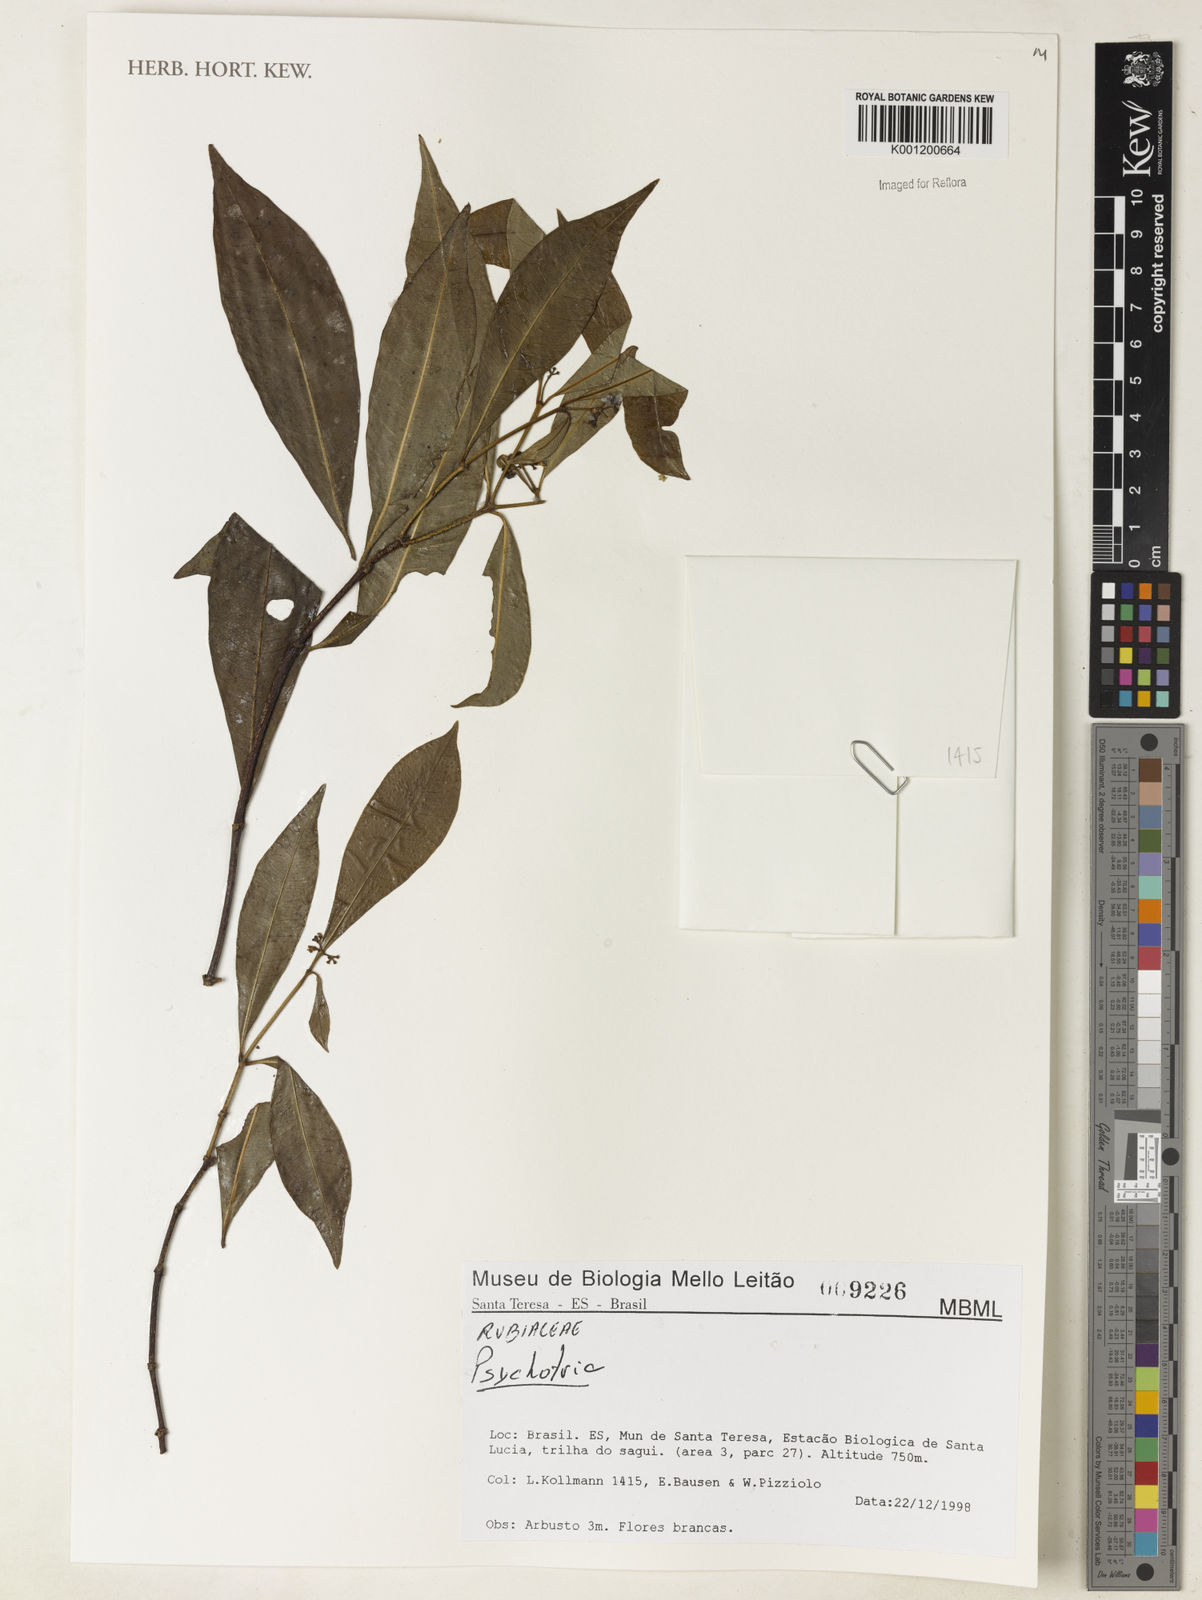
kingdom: Plantae
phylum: Tracheophyta
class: Magnoliopsida
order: Gentianales
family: Rubiaceae
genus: Psychotria
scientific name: Psychotria
